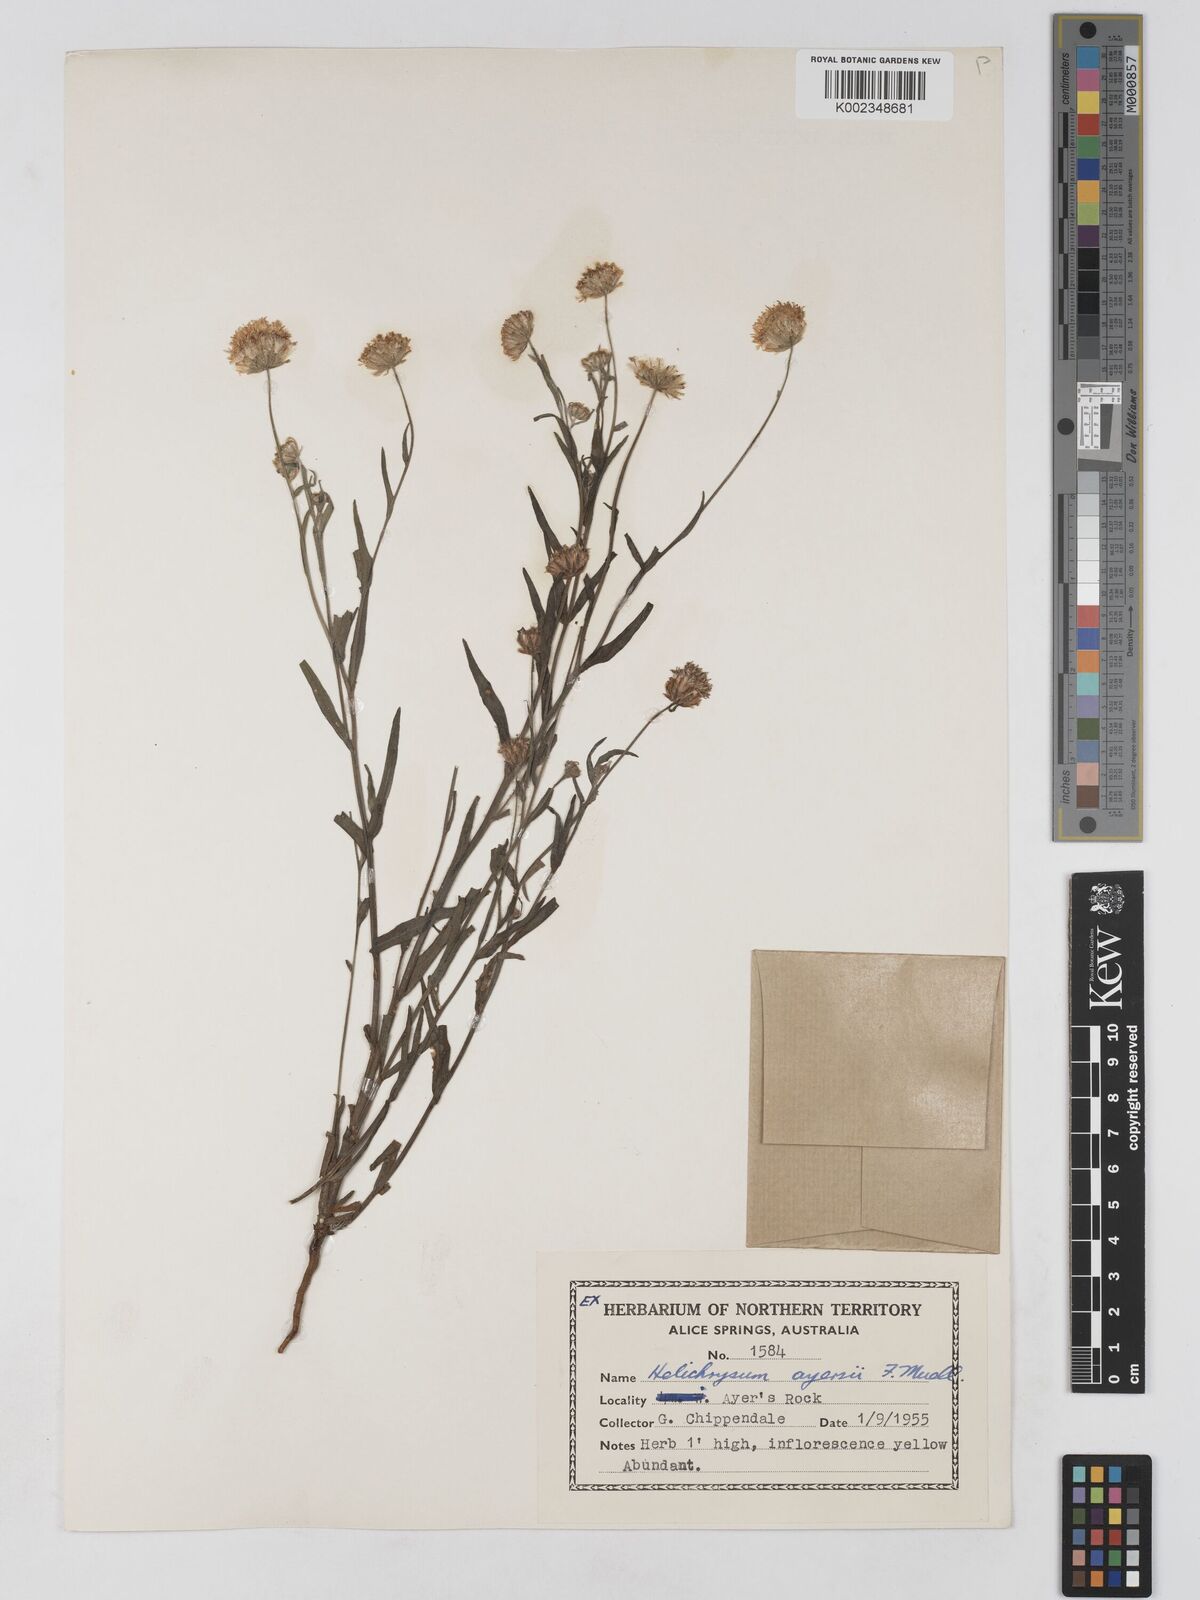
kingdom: Plantae
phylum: Tracheophyta
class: Magnoliopsida
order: Asterales
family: Asteraceae
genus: Schoenia
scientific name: Schoenia ayersii
